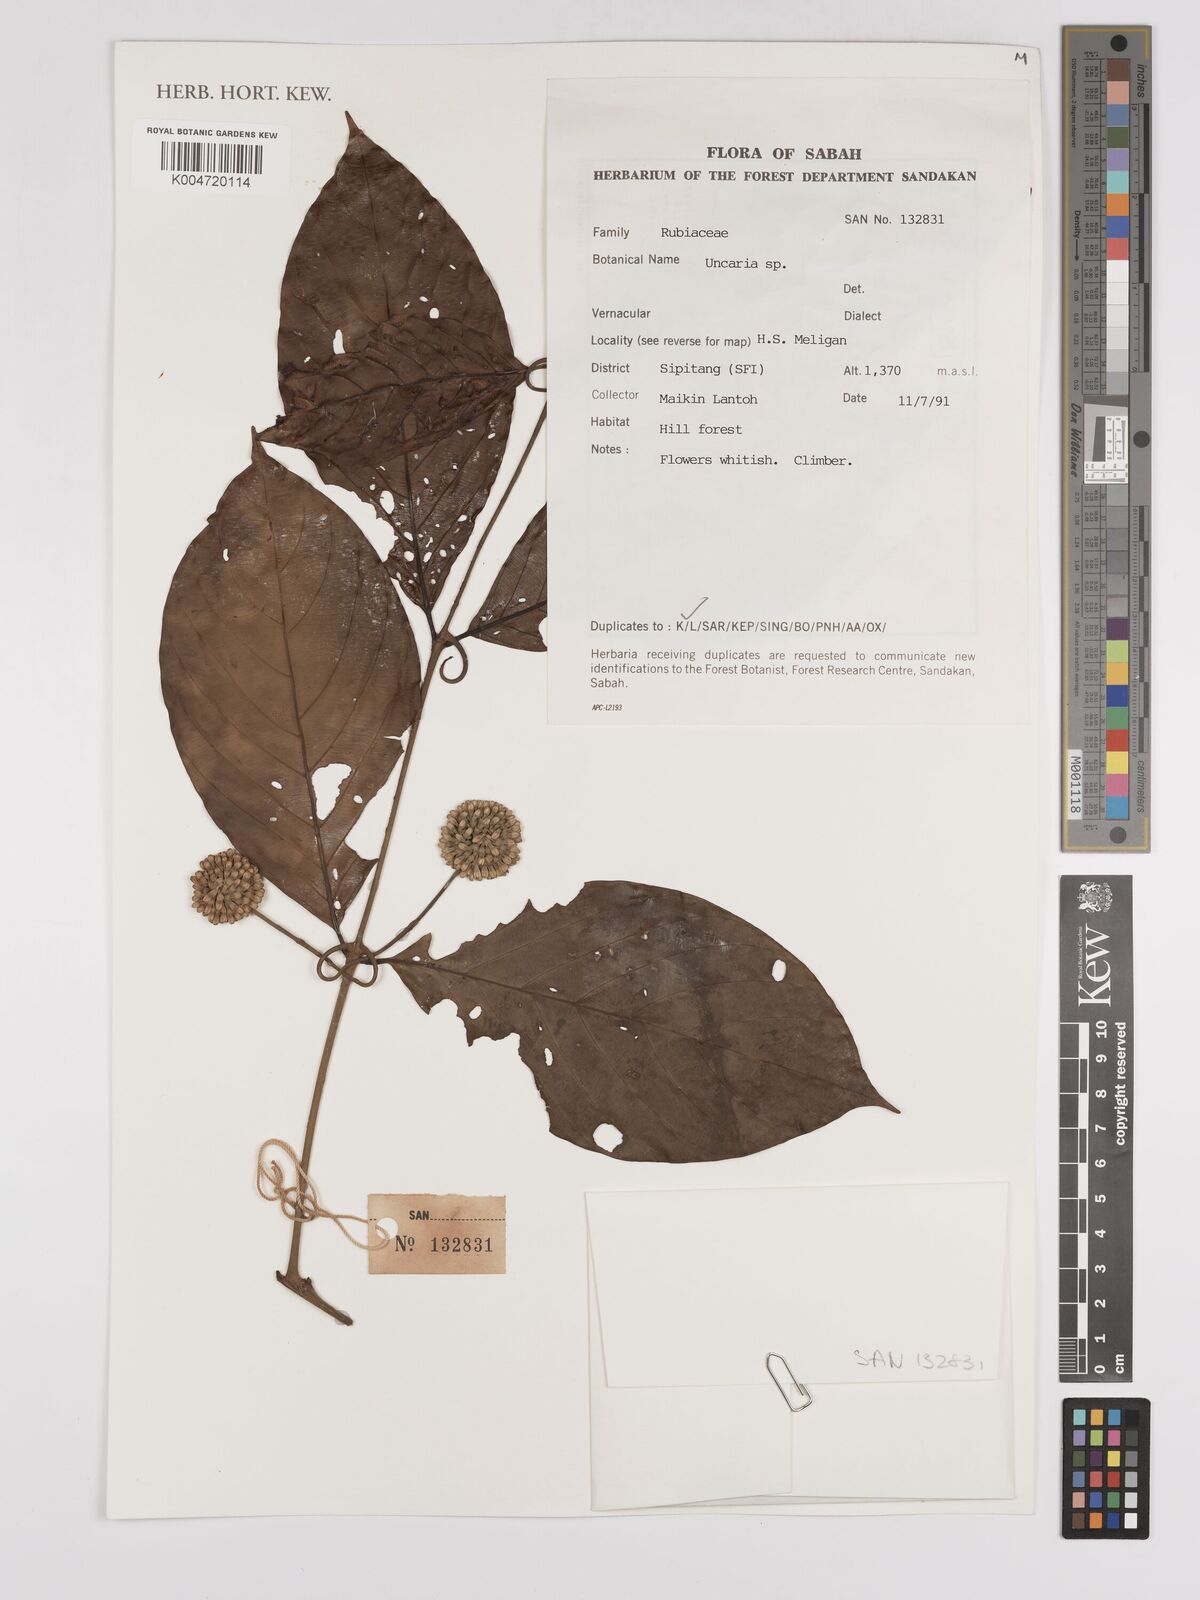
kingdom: Plantae
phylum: Tracheophyta
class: Magnoliopsida
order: Gentianales
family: Rubiaceae
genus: Uncaria
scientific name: Uncaria
